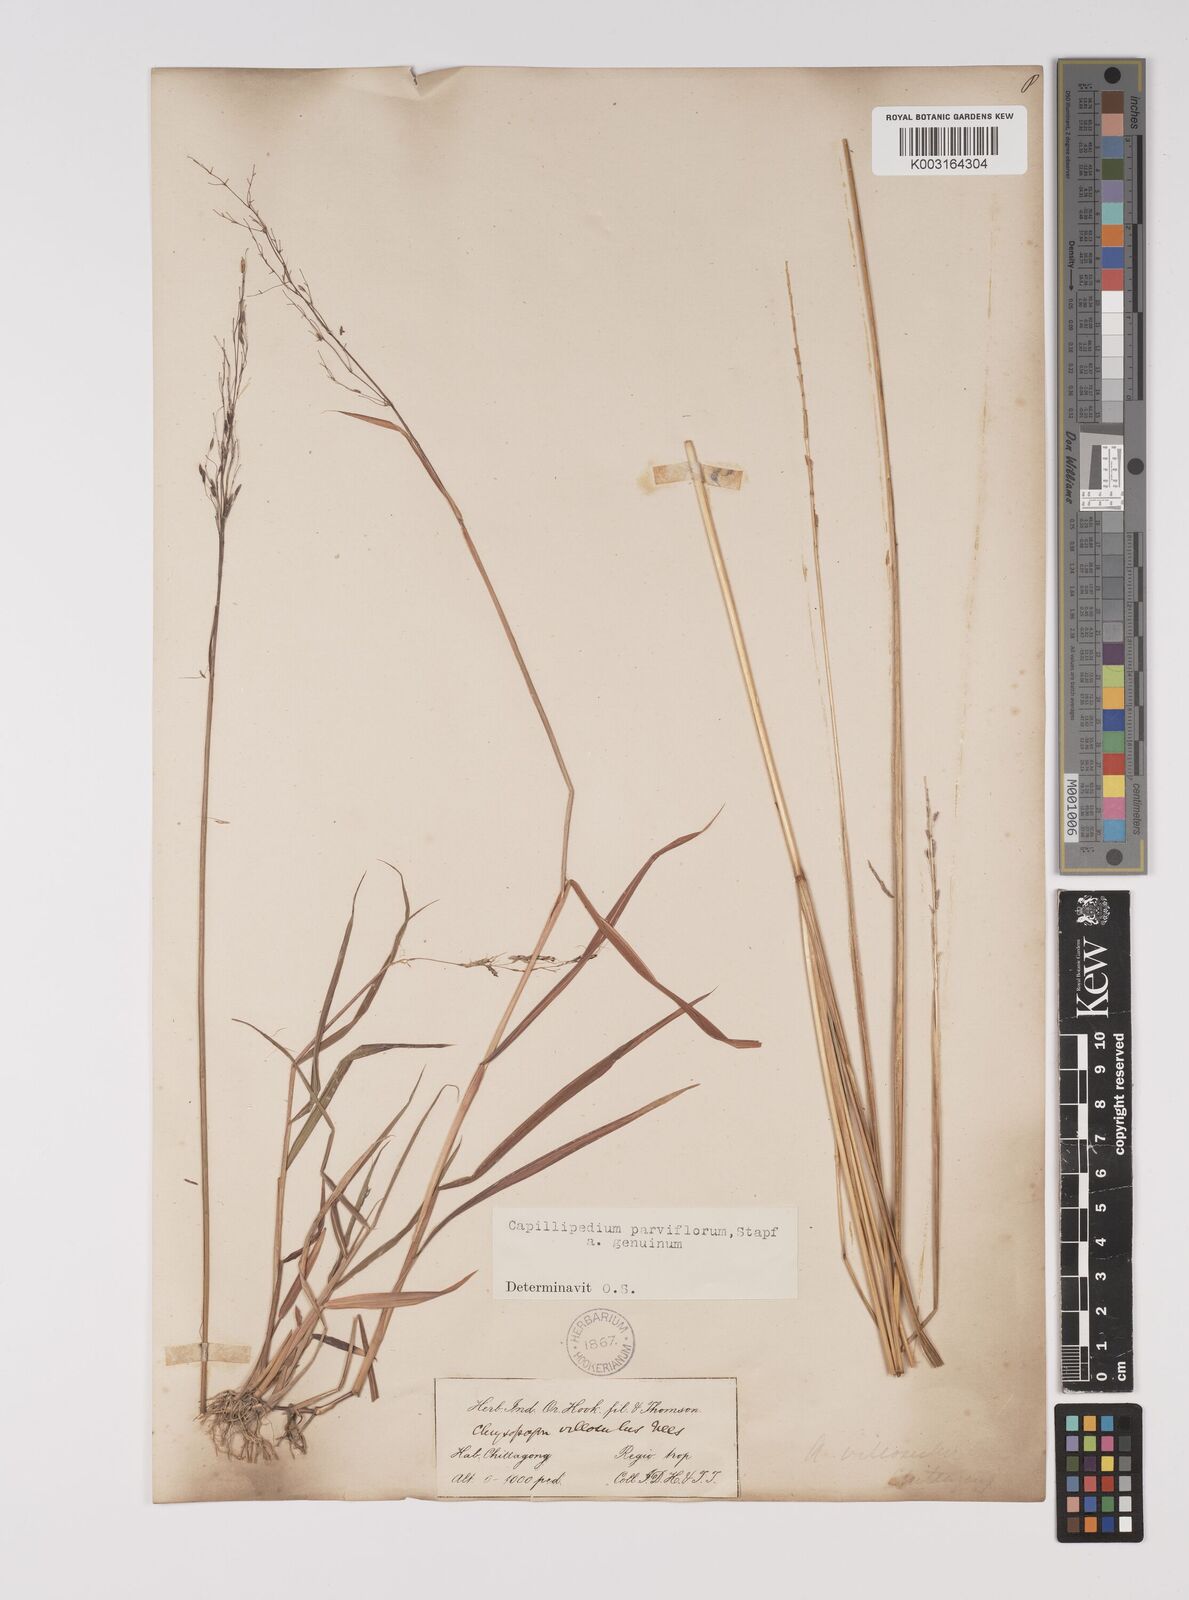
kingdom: Plantae
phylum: Tracheophyta
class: Liliopsida
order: Poales
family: Poaceae
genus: Capillipedium
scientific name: Capillipedium parviflorum
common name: Golden-beard
